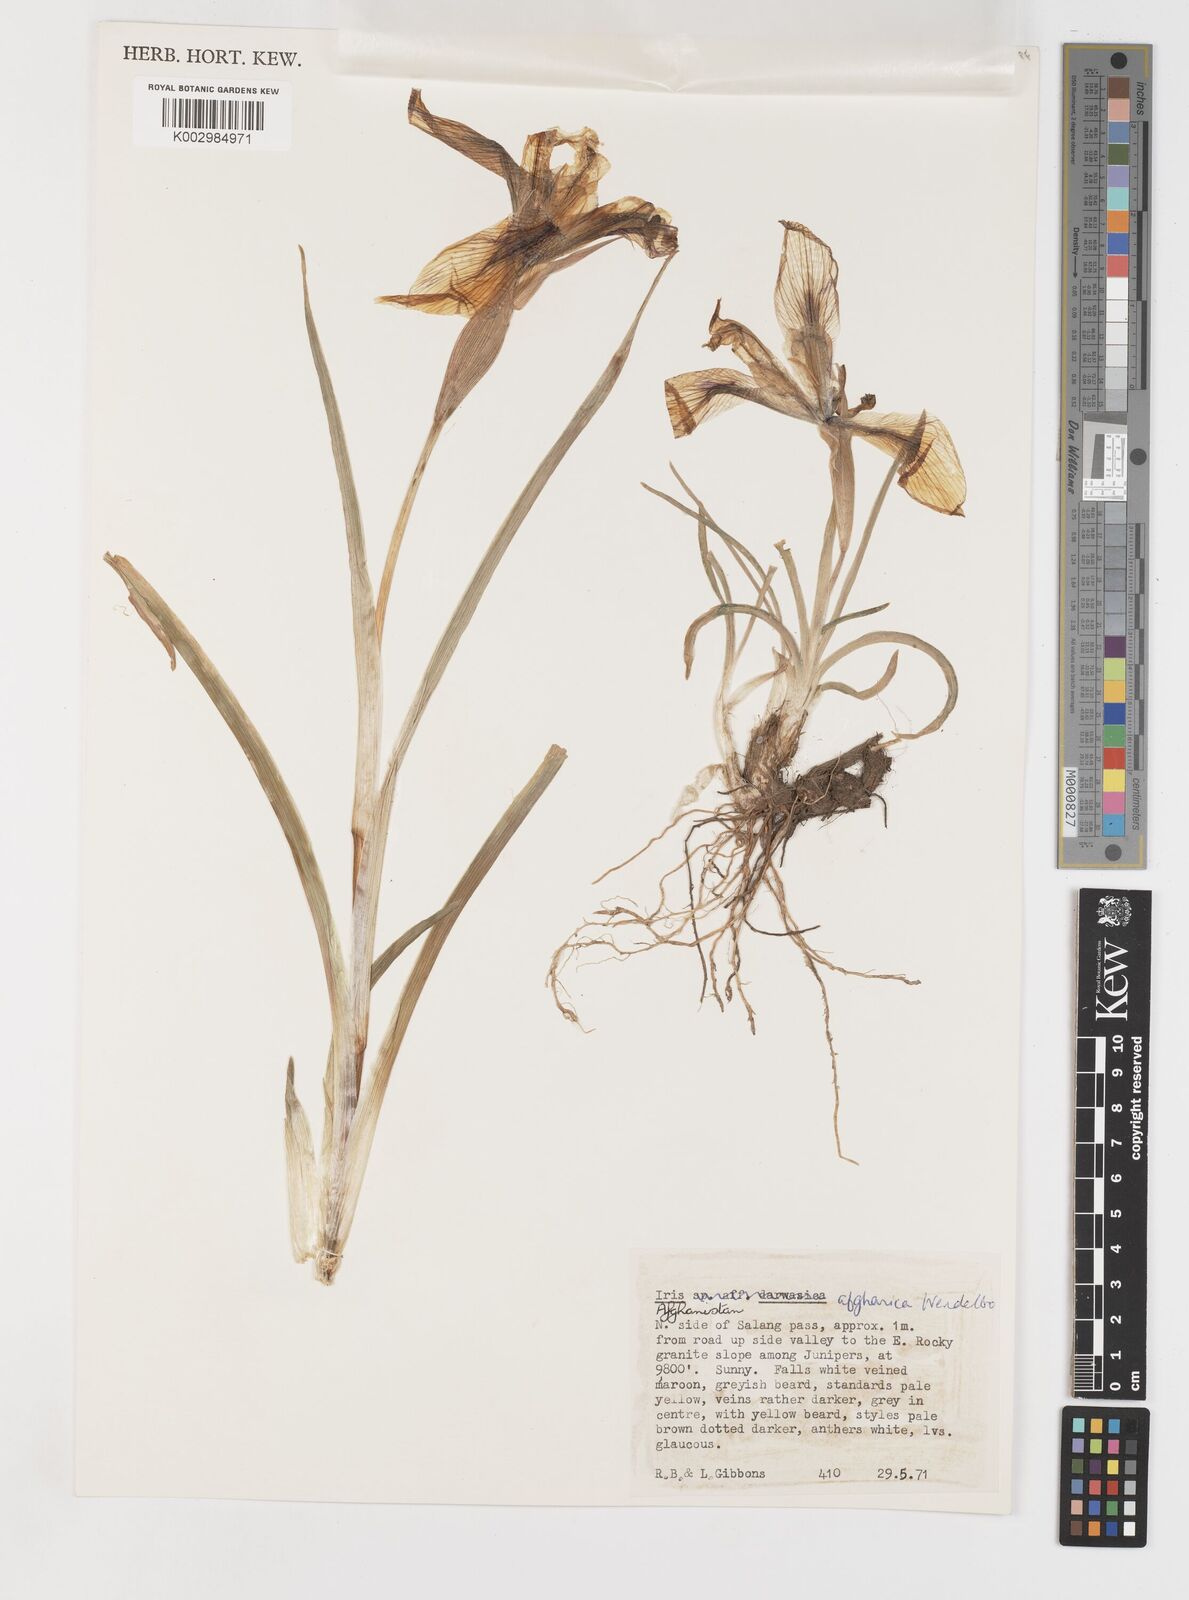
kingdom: Plantae
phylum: Tracheophyta
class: Liliopsida
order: Asparagales
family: Iridaceae
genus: Iris
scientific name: Iris afghanica
